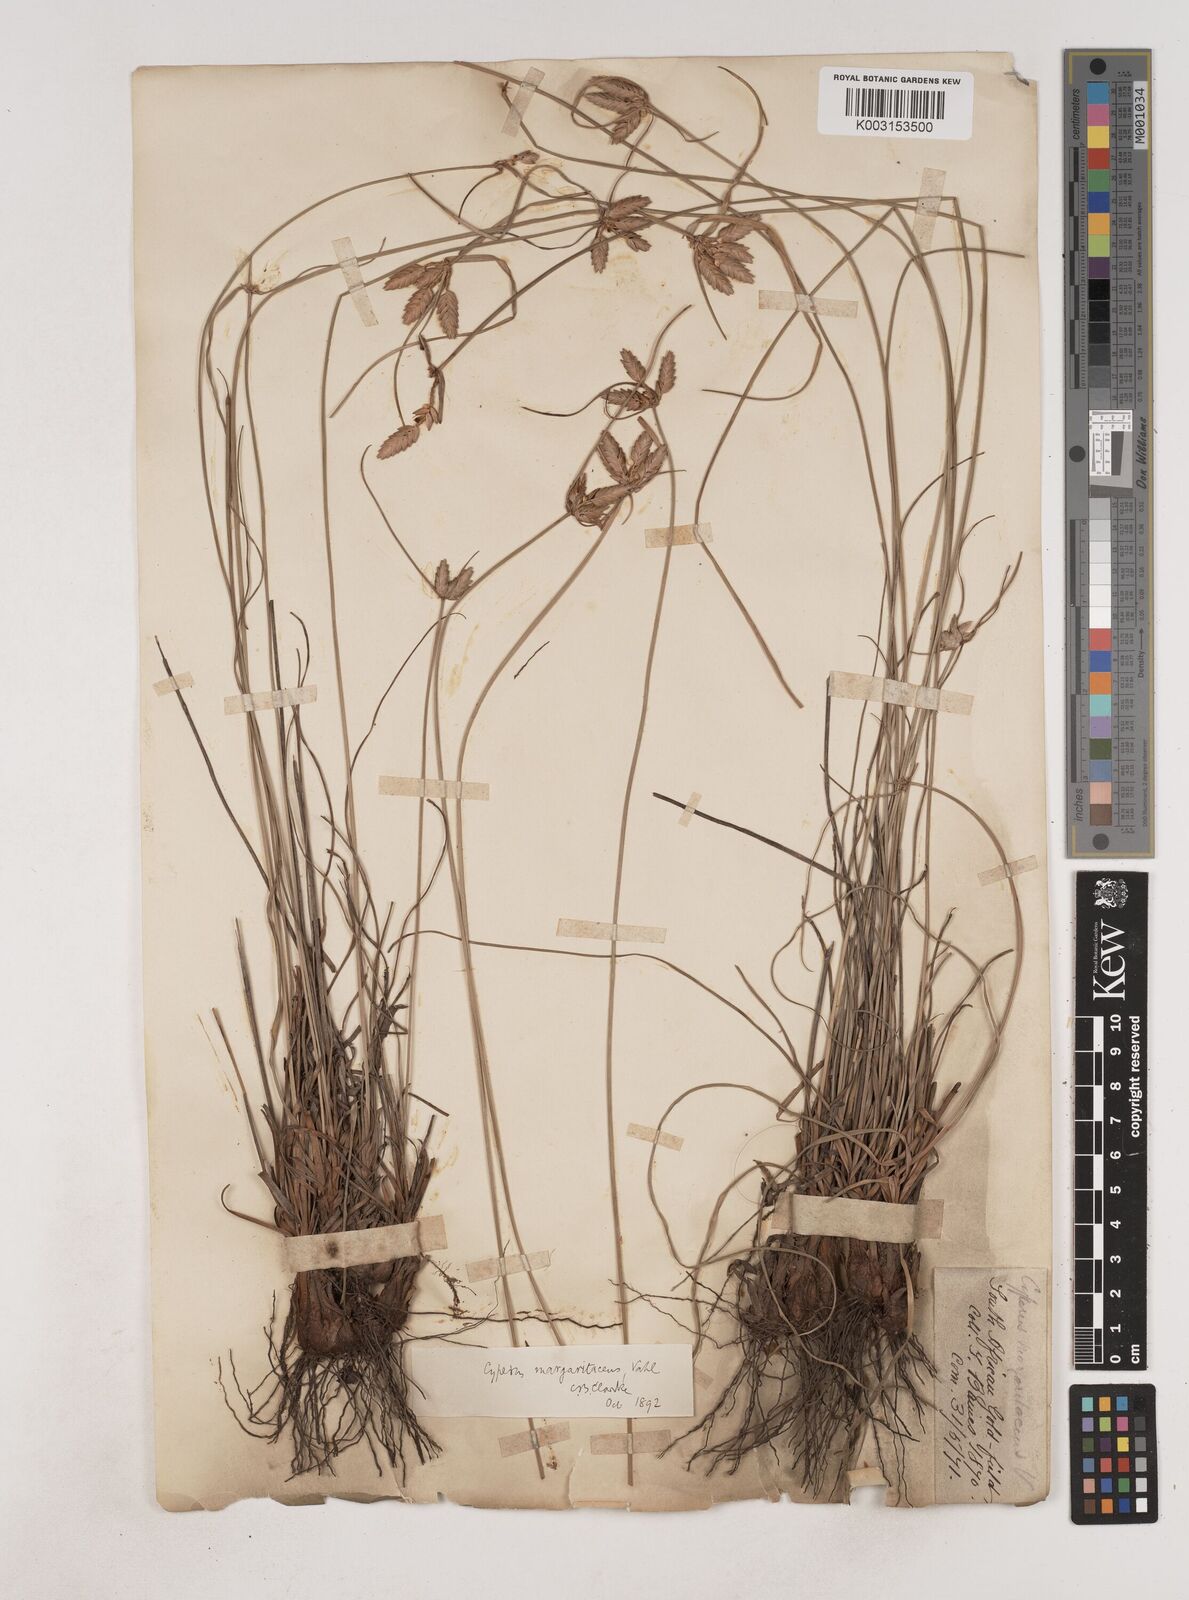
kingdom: Plantae
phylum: Tracheophyta
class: Liliopsida
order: Poales
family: Cyperaceae
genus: Cyperus
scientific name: Cyperus margaritaceus
